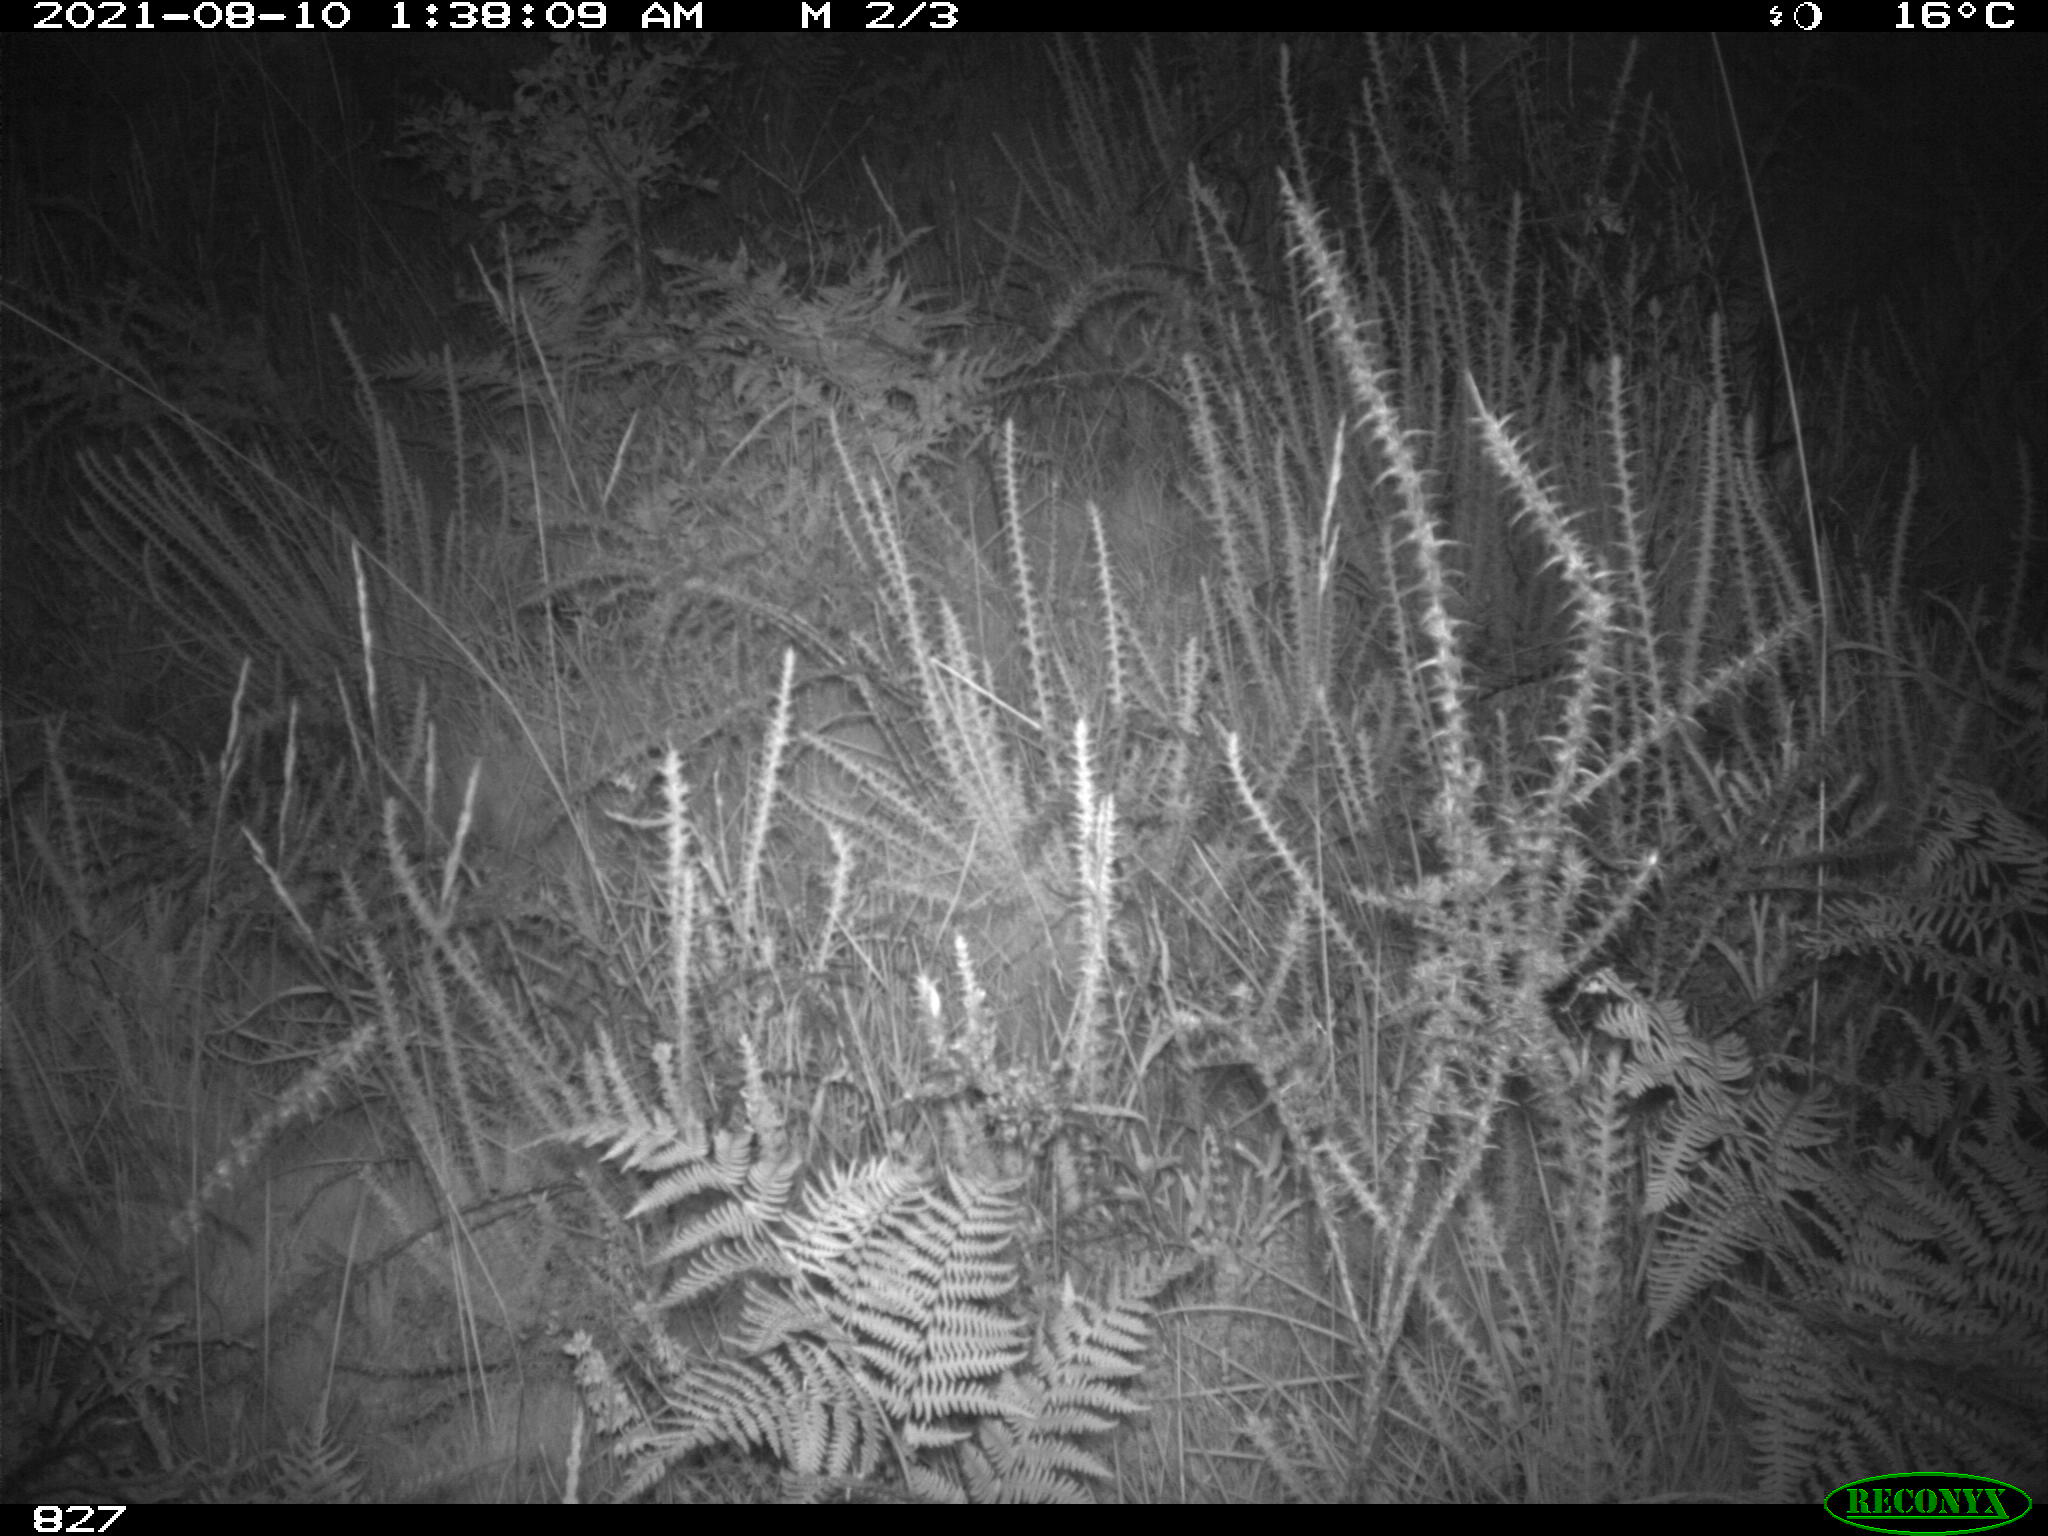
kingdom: Animalia
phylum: Chordata
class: Mammalia
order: Artiodactyla
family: Cervidae
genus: Capreolus
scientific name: Capreolus capreolus
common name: Western roe deer
